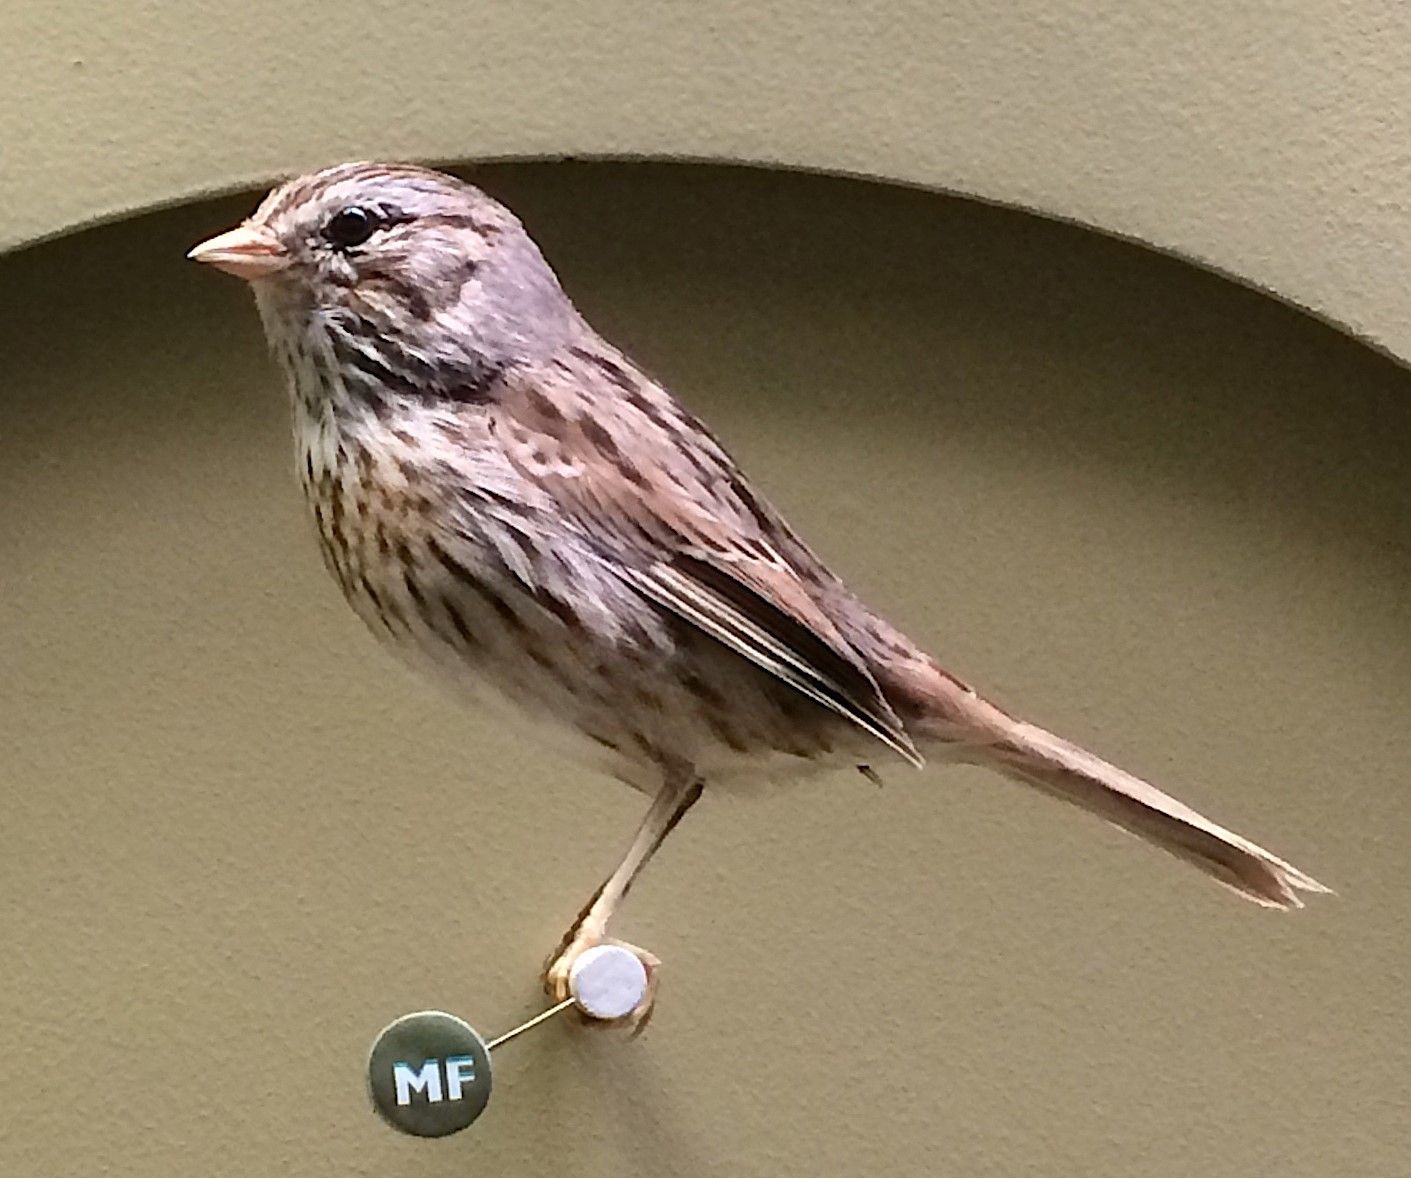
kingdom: Animalia
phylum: Chordata
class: Aves
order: Passeriformes
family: Passerellidae
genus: Melospiza
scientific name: Melospiza lincolnii
